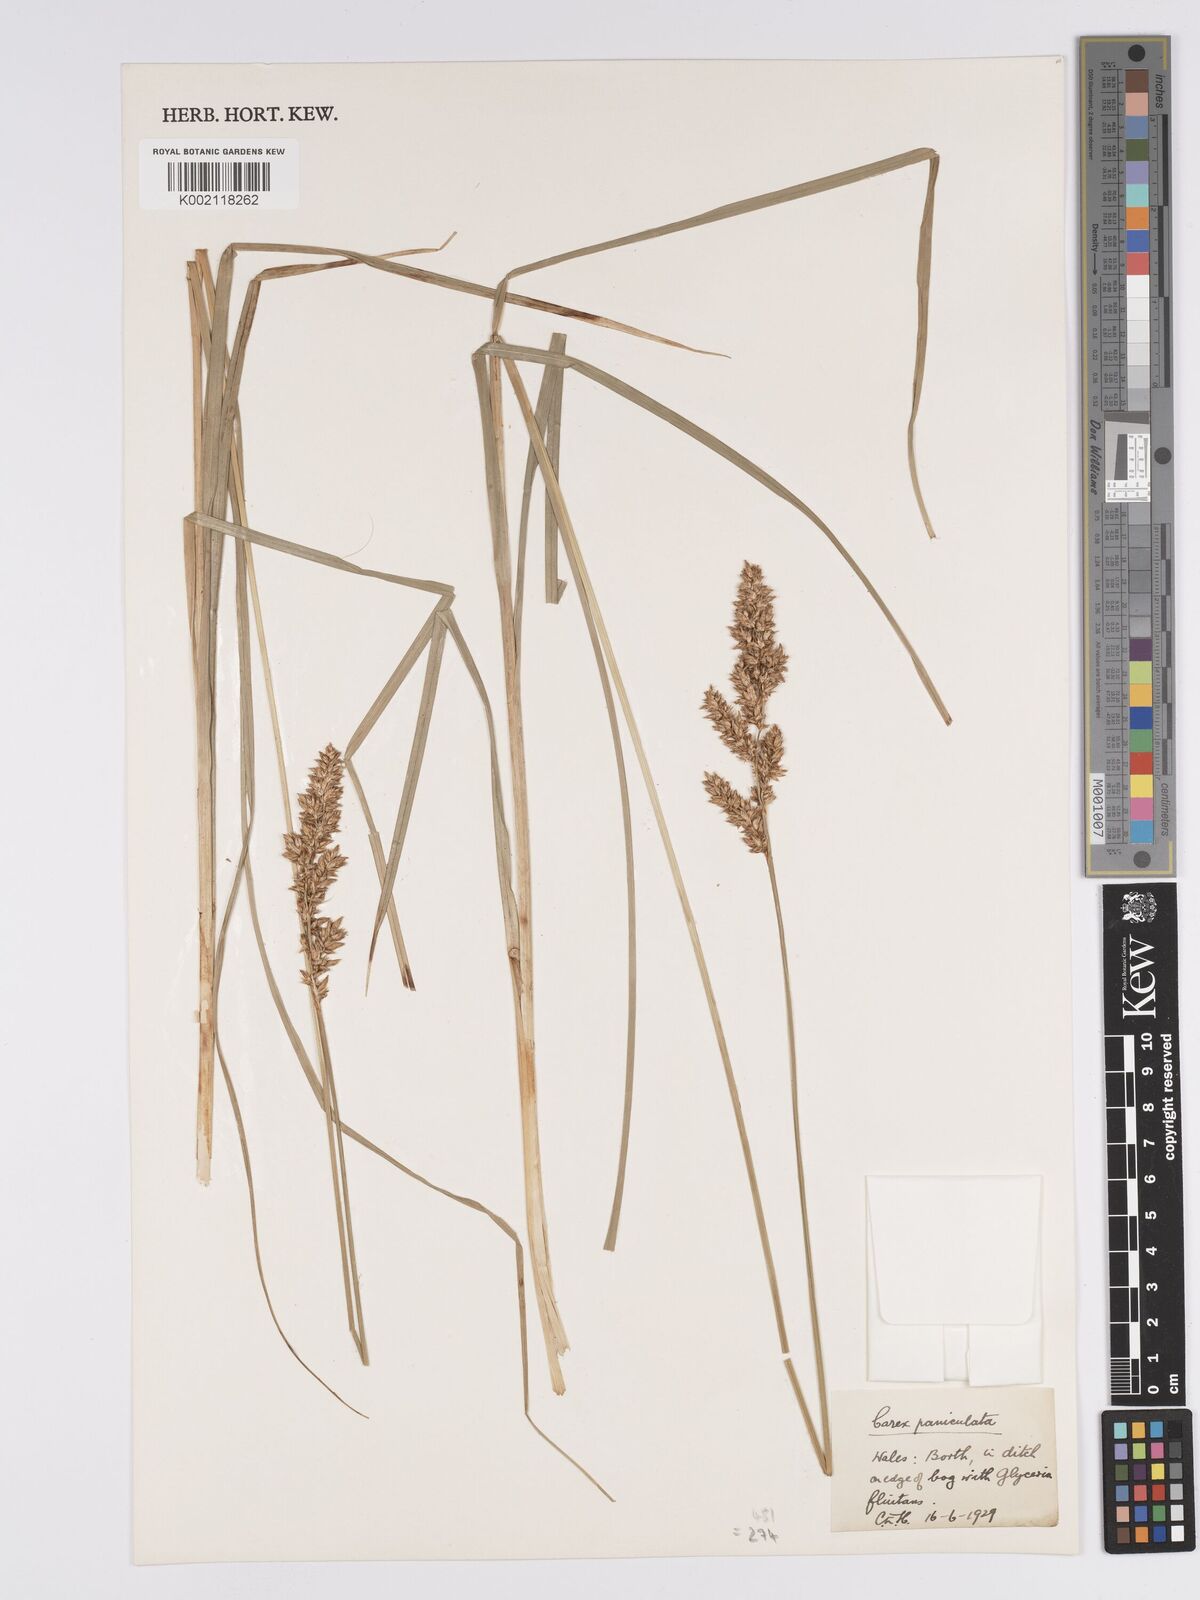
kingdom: Plantae
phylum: Tracheophyta
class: Liliopsida
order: Poales
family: Cyperaceae
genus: Carex
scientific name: Carex paniculata
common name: Greater tussock-sedge
